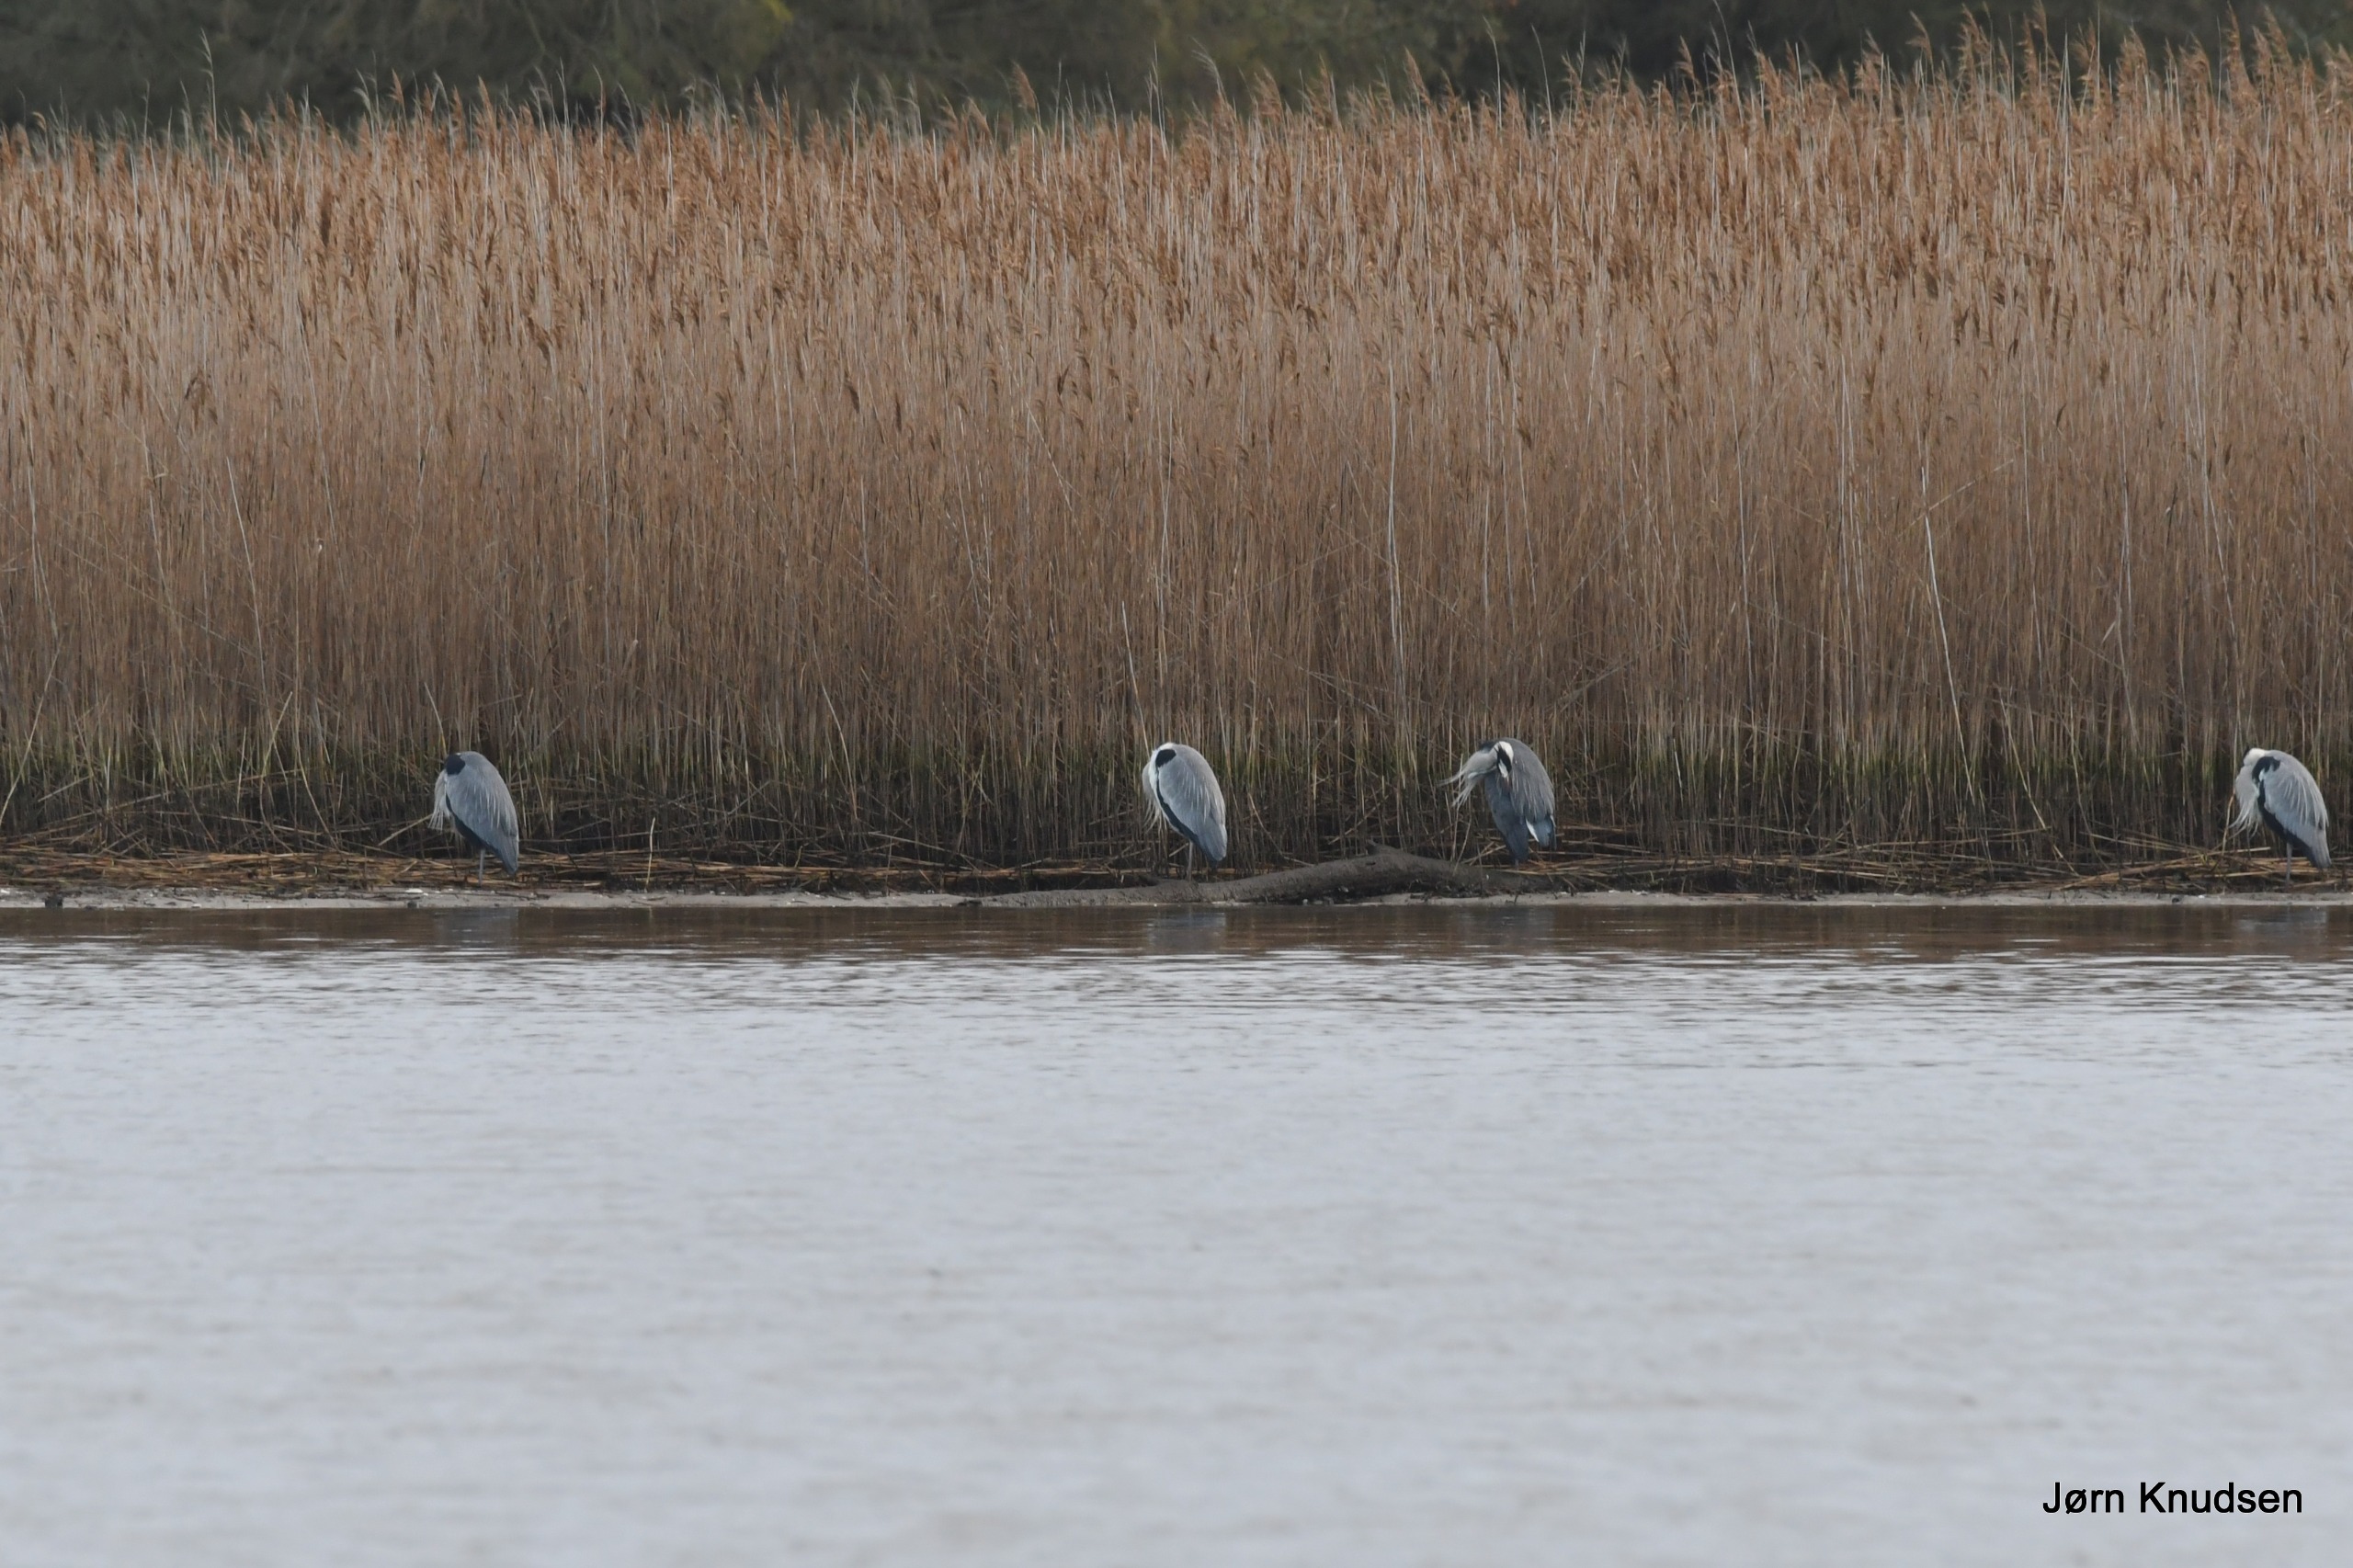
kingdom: Animalia
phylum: Chordata
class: Aves
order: Pelecaniformes
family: Ardeidae
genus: Ardea
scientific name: Ardea cinerea
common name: Fiskehejre
